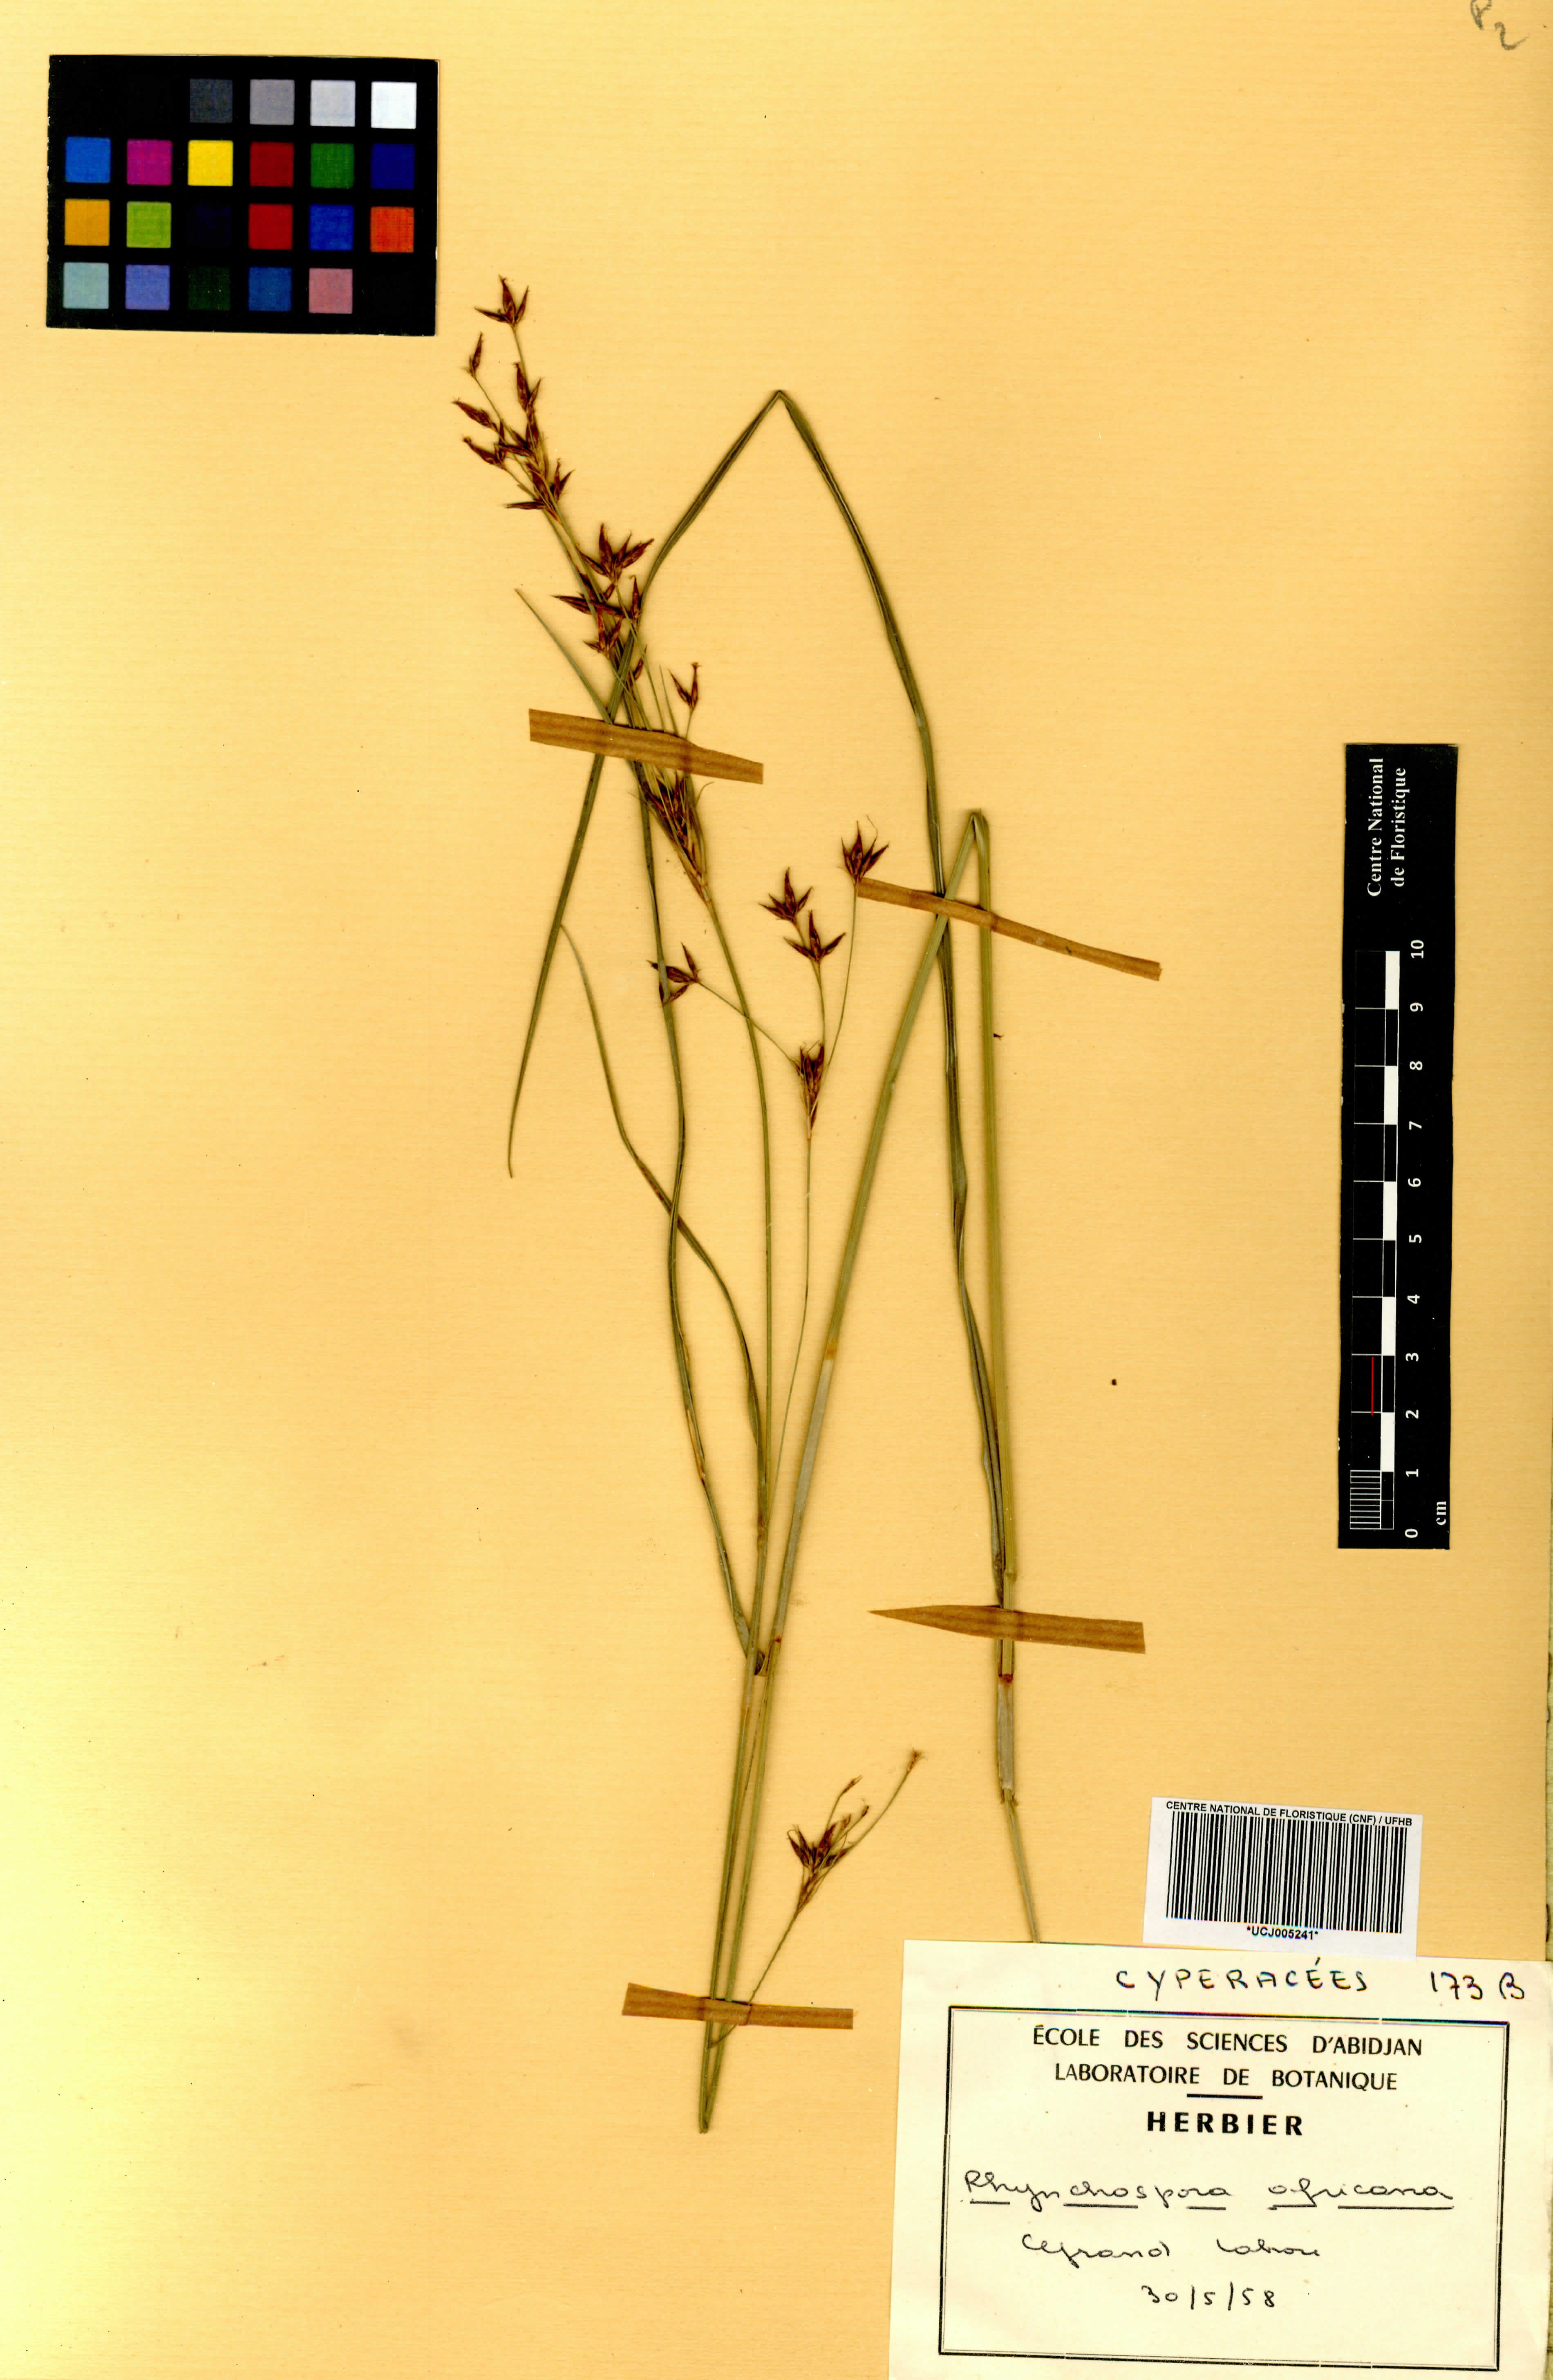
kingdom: Plantae
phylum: Tracheophyta
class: Liliopsida
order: Poales
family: Cyperaceae
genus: Rhynchospora
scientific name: Rhynchospora angolensis
